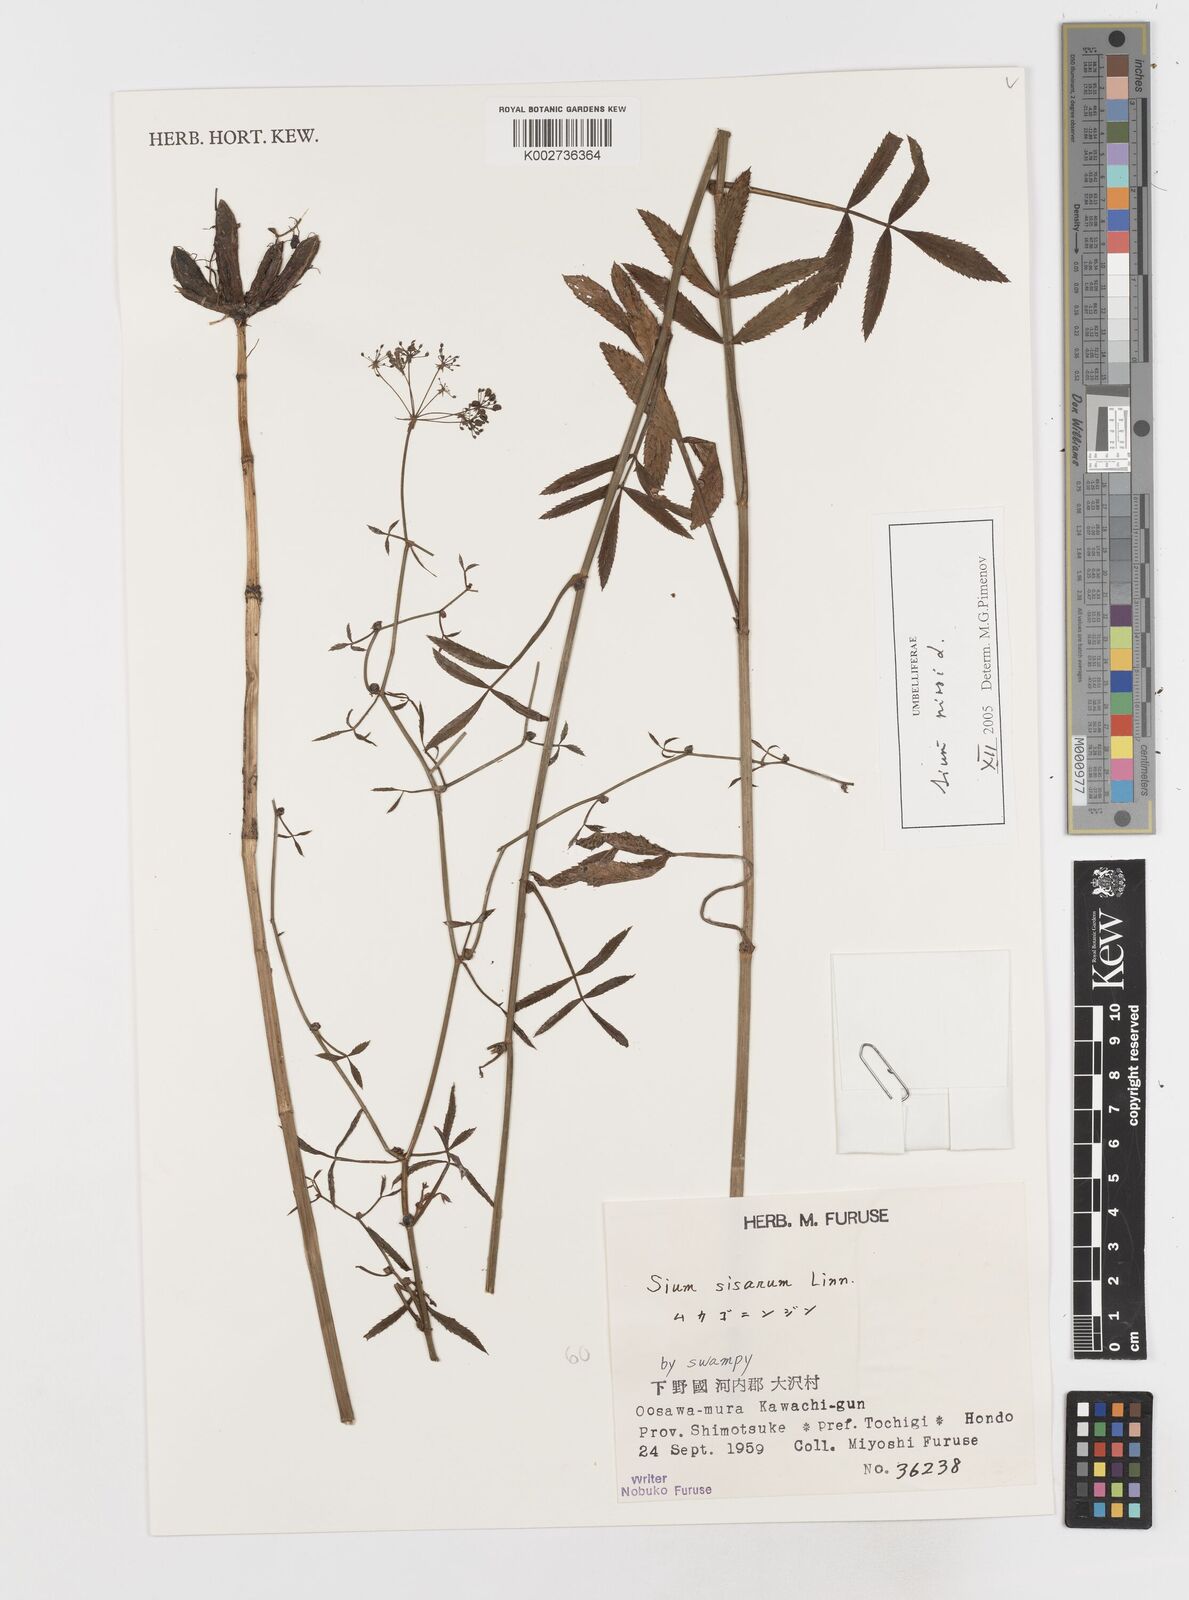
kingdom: Plantae
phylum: Tracheophyta
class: Magnoliopsida
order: Apiales
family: Apiaceae
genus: Sium
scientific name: Sium ninsi
